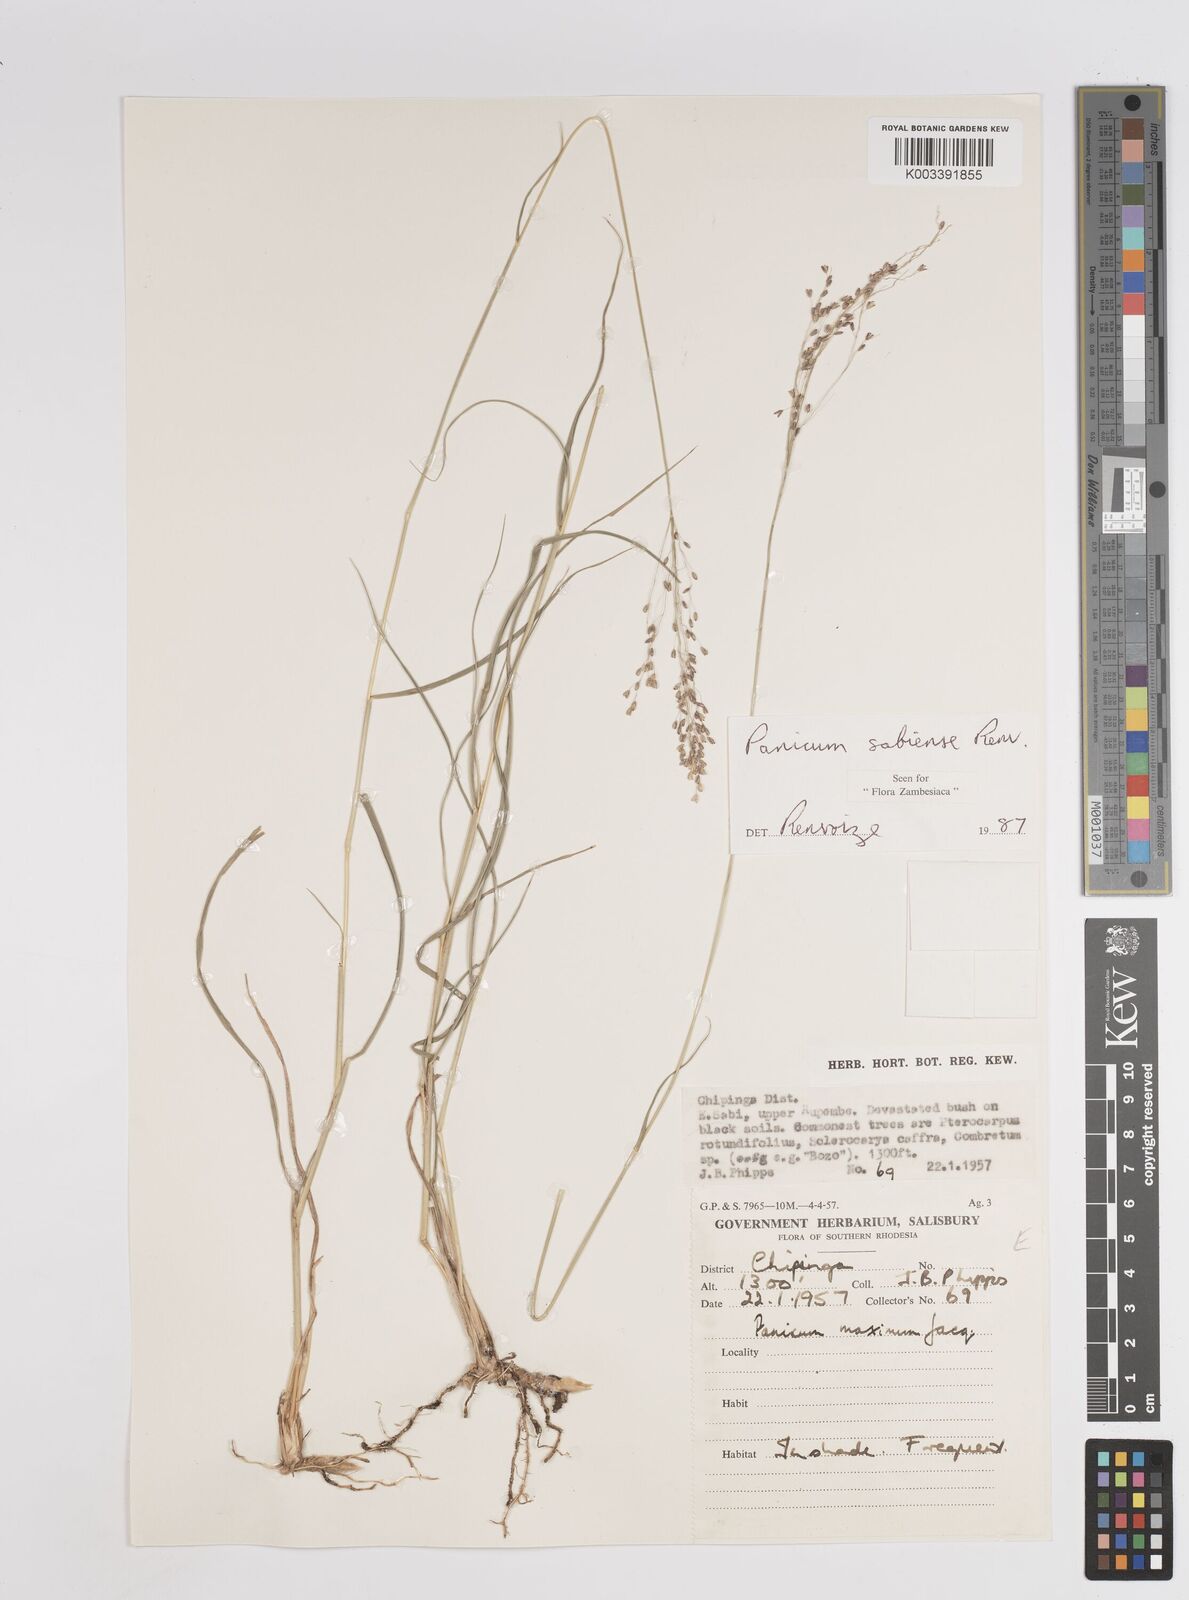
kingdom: Plantae
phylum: Tracheophyta
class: Liliopsida
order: Poales
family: Poaceae
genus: Panicum
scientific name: Panicum trichoides
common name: Tickle grass
